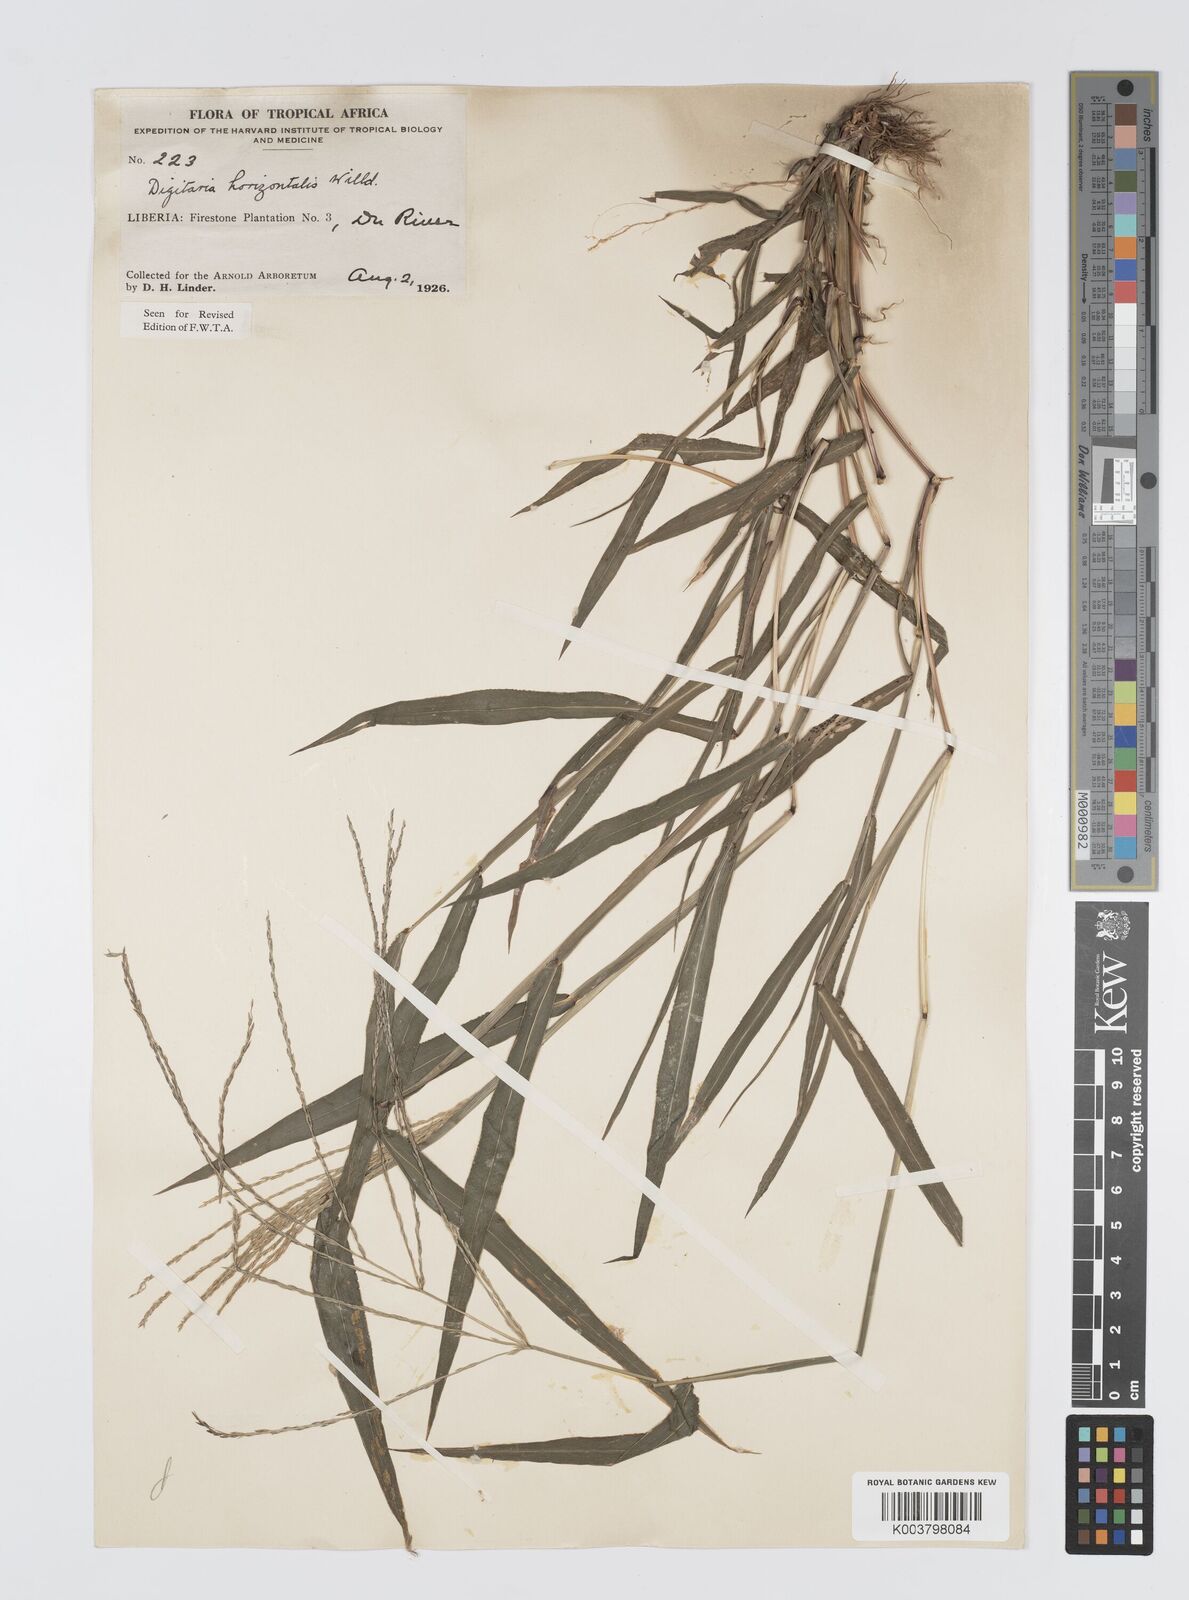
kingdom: Plantae
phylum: Tracheophyta
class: Liliopsida
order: Poales
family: Poaceae
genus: Digitaria
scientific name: Digitaria horizontalis
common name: Jamaican crabgrass
